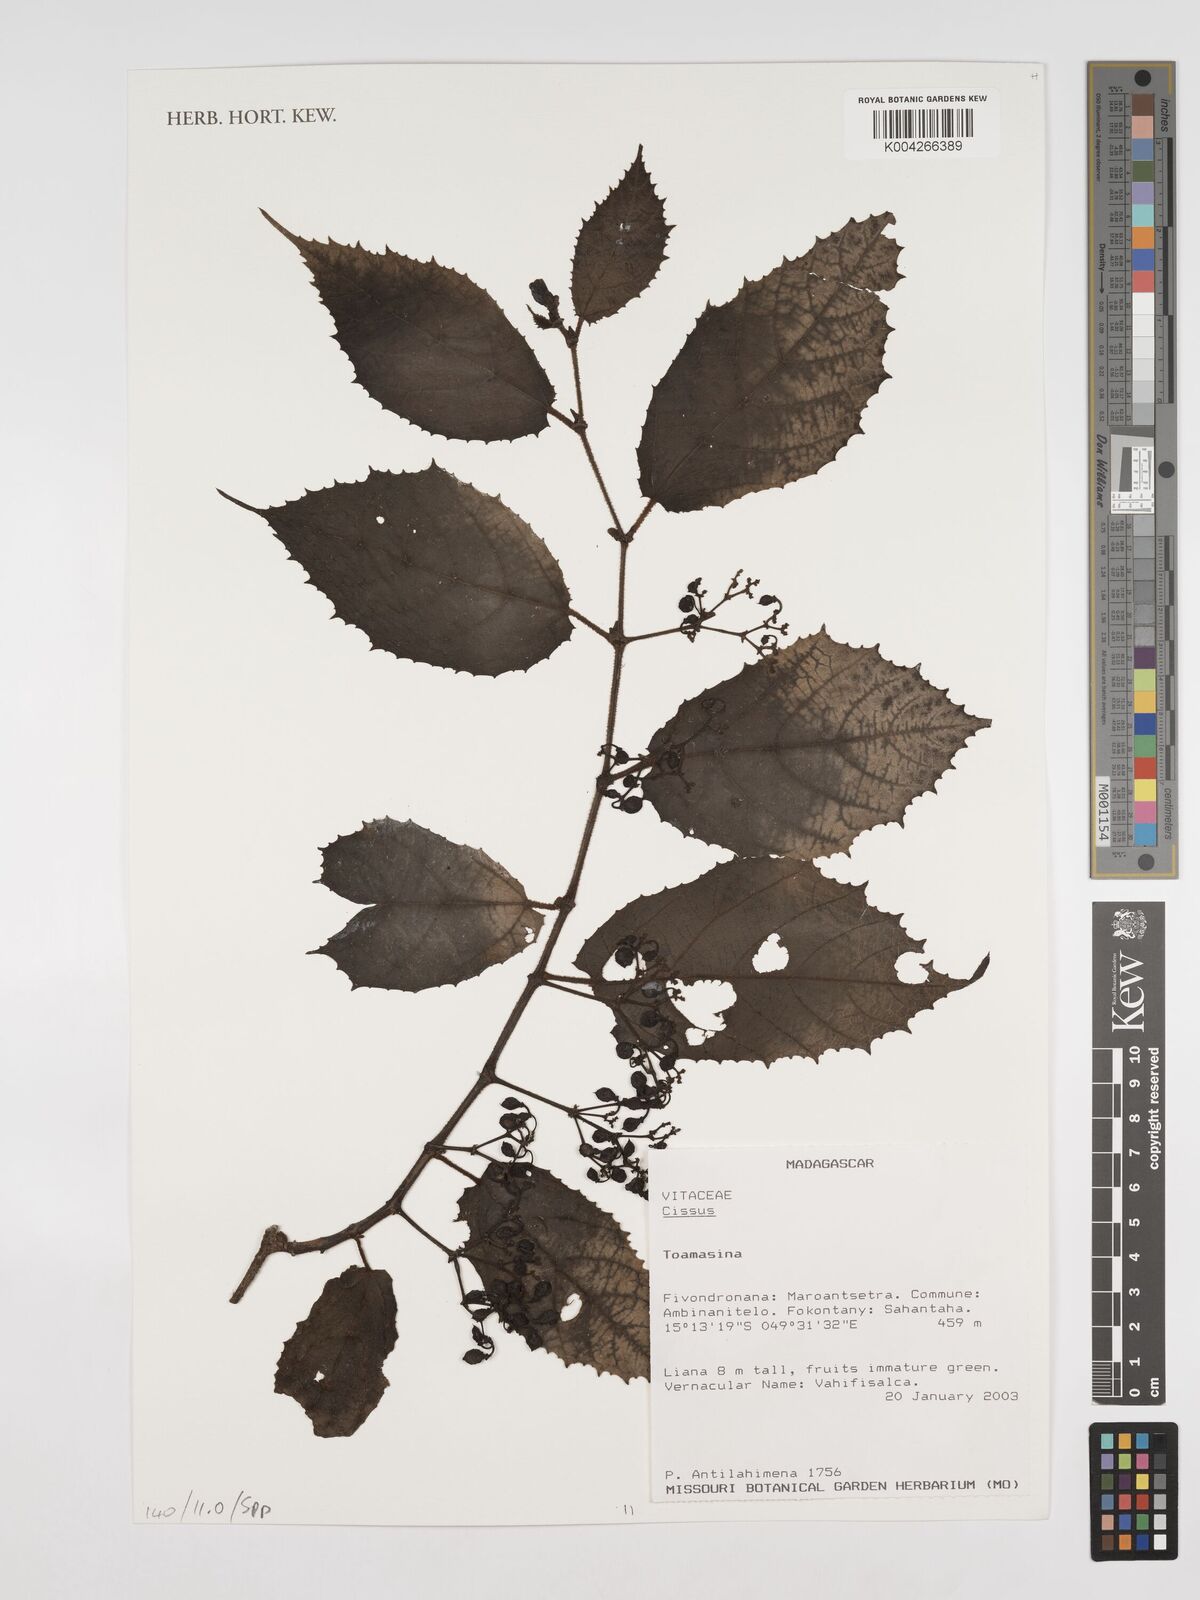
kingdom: Plantae
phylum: Tracheophyta
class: Magnoliopsida
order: Vitales
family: Vitaceae
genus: Cissus
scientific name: Cissus
